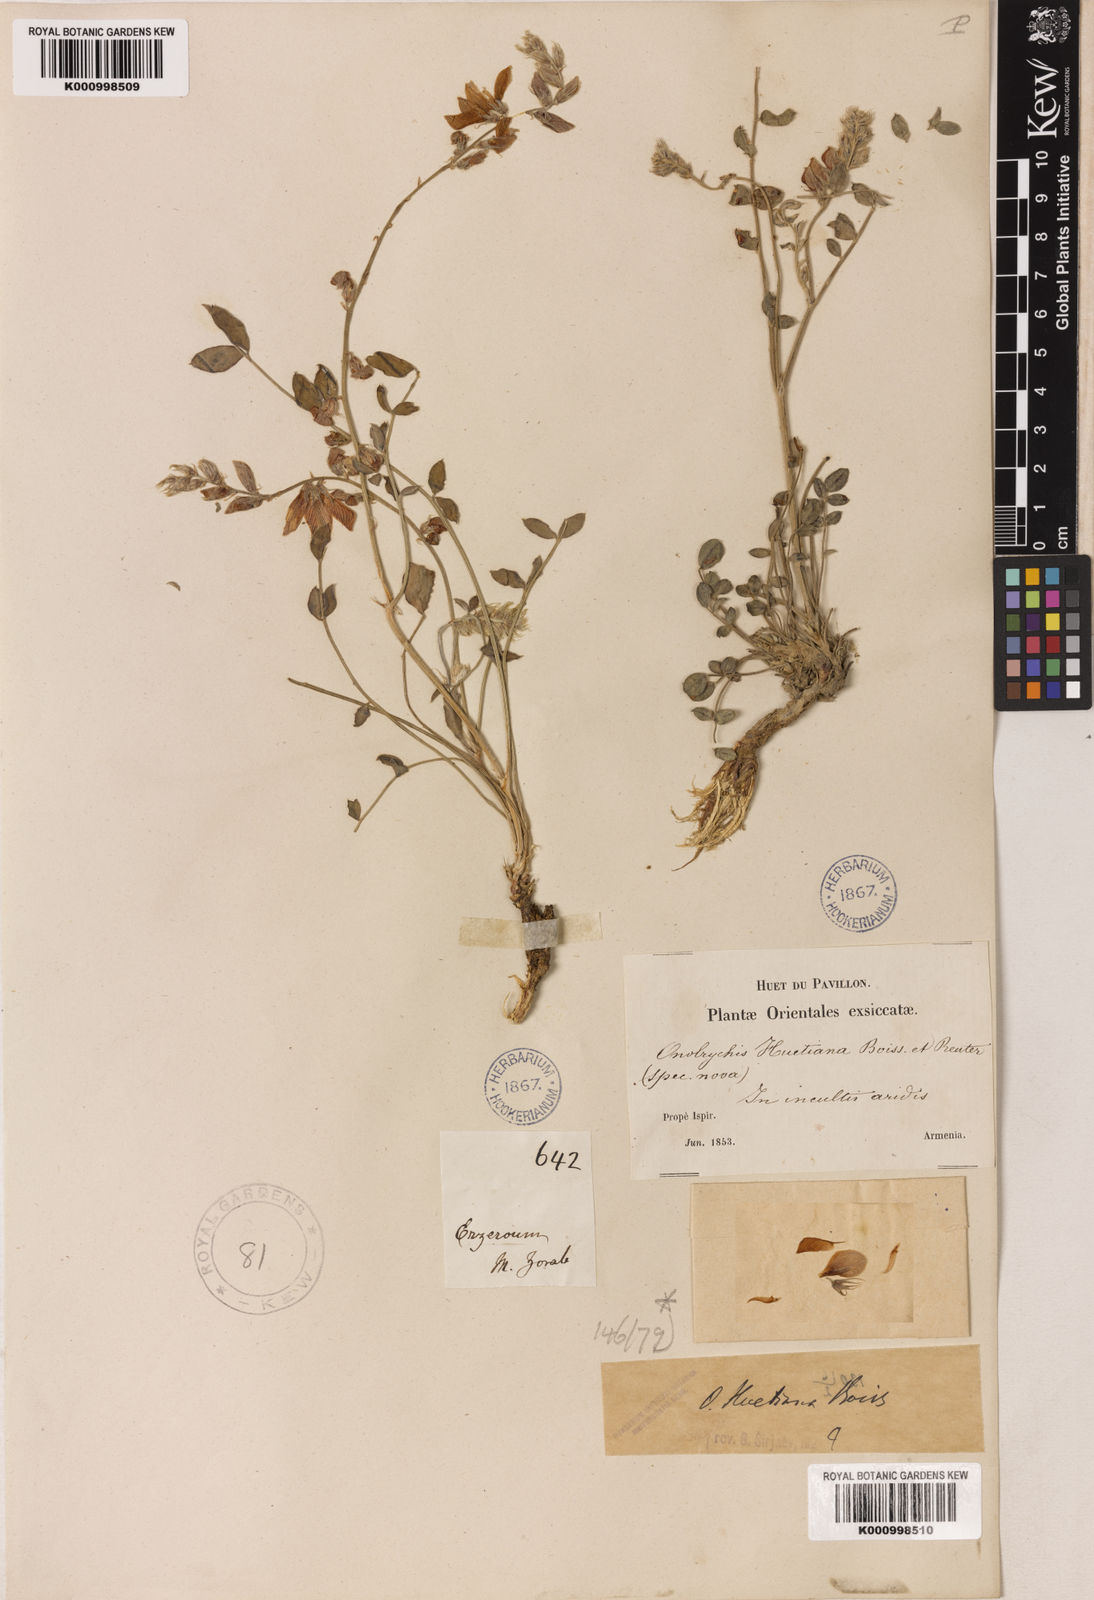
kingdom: Plantae
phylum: Tracheophyta
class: Magnoliopsida
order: Fabales
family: Fabaceae
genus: Onobrychis
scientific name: Onobrychis huetiana
